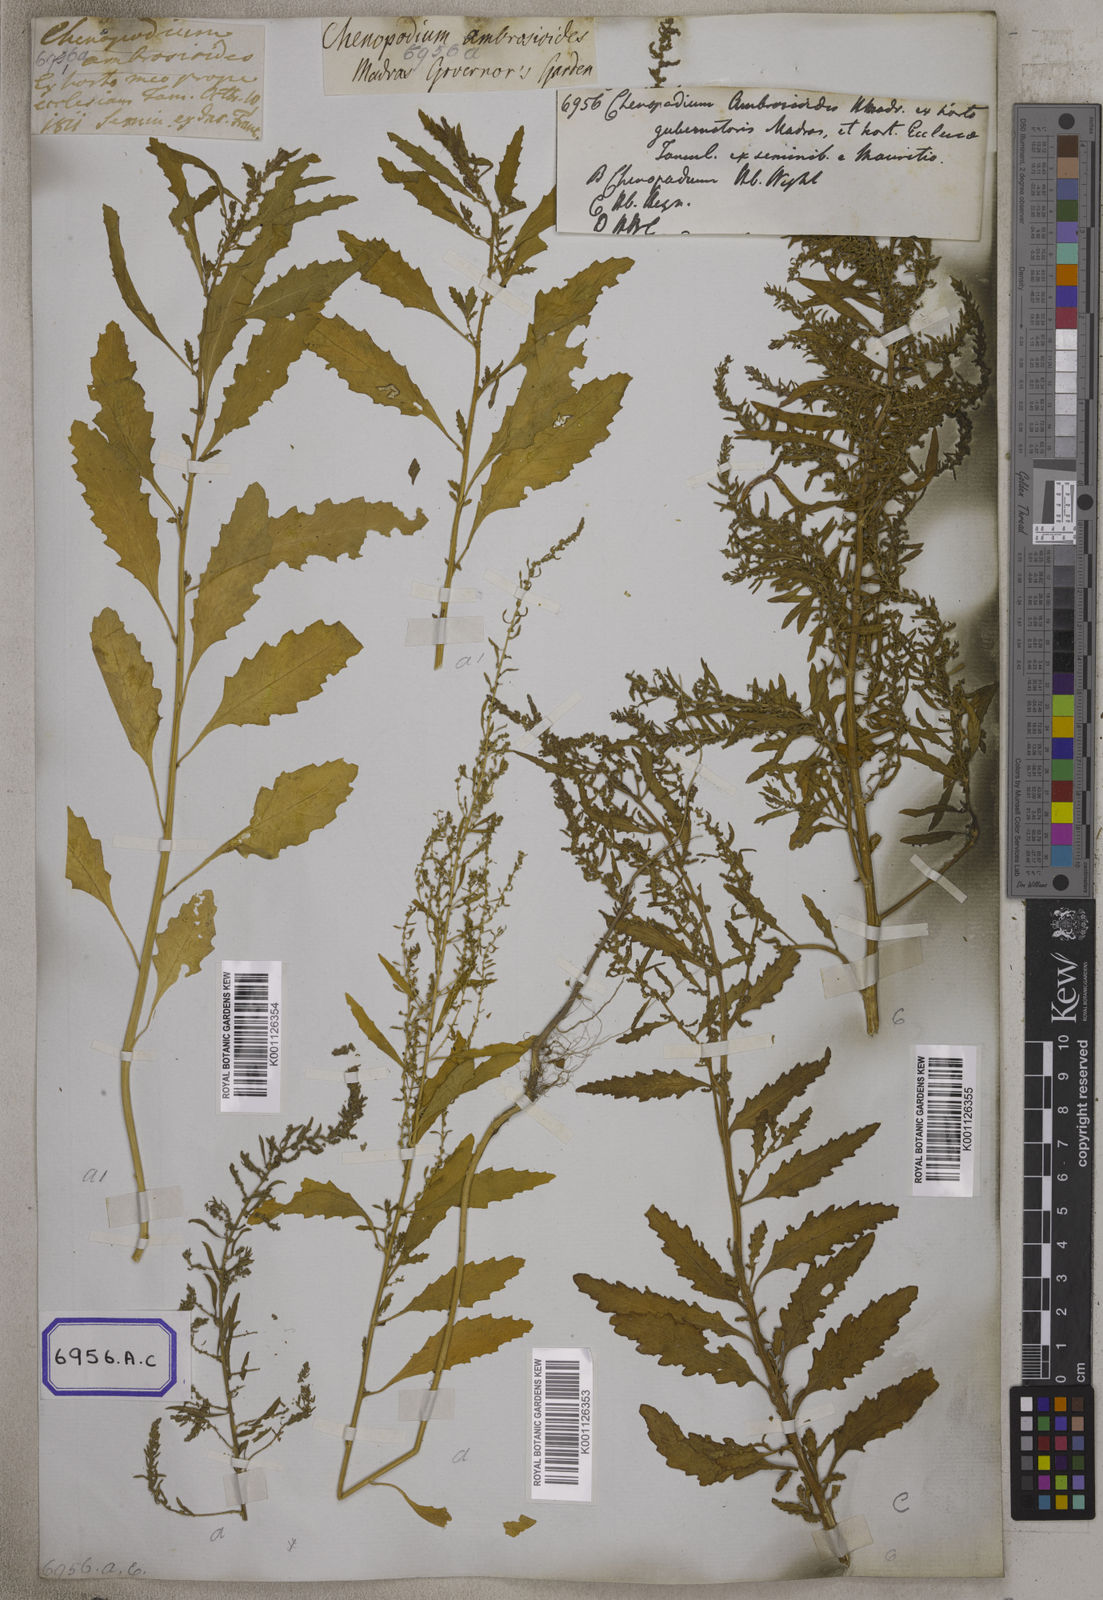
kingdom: Plantae
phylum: Tracheophyta
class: Magnoliopsida
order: Caryophyllales
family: Amaranthaceae
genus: Dysphania
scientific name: Dysphania ambrosioides
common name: Wormseed
